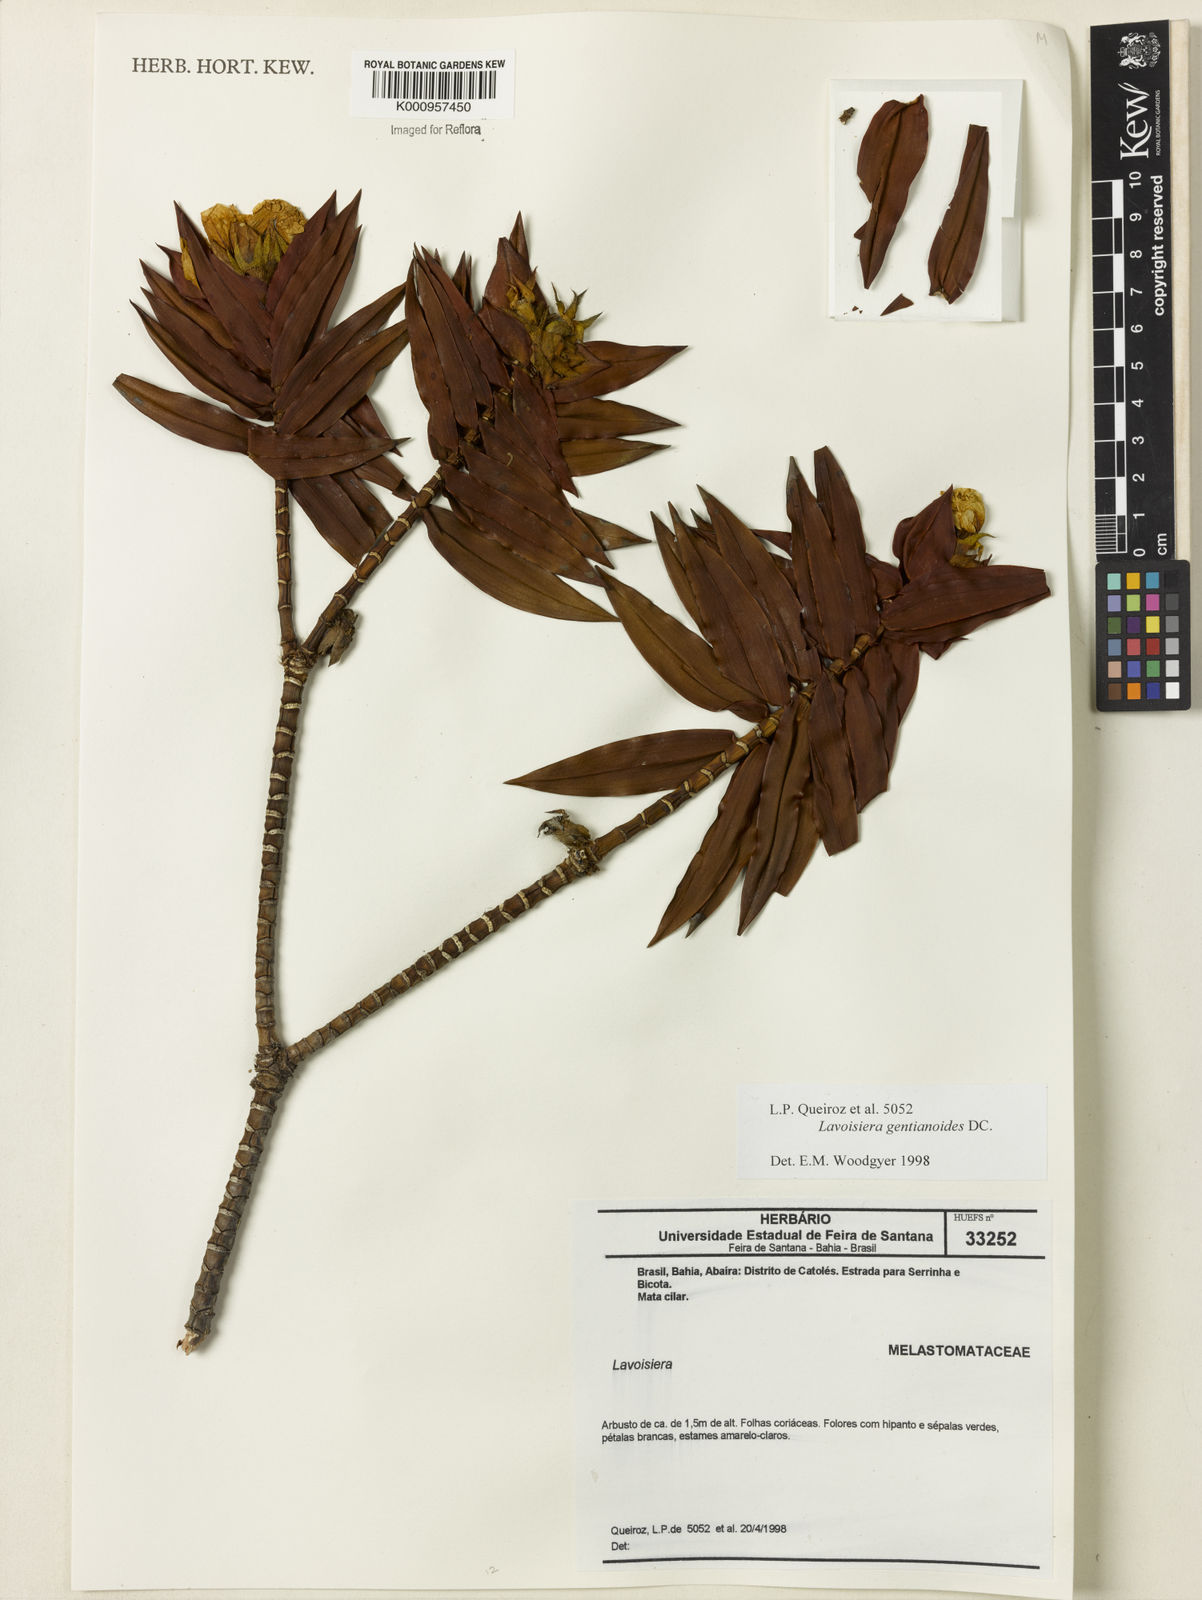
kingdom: Plantae
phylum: Tracheophyta
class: Magnoliopsida
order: Myrtales
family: Melastomataceae
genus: Microlicia
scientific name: Microlicia gentianoides
